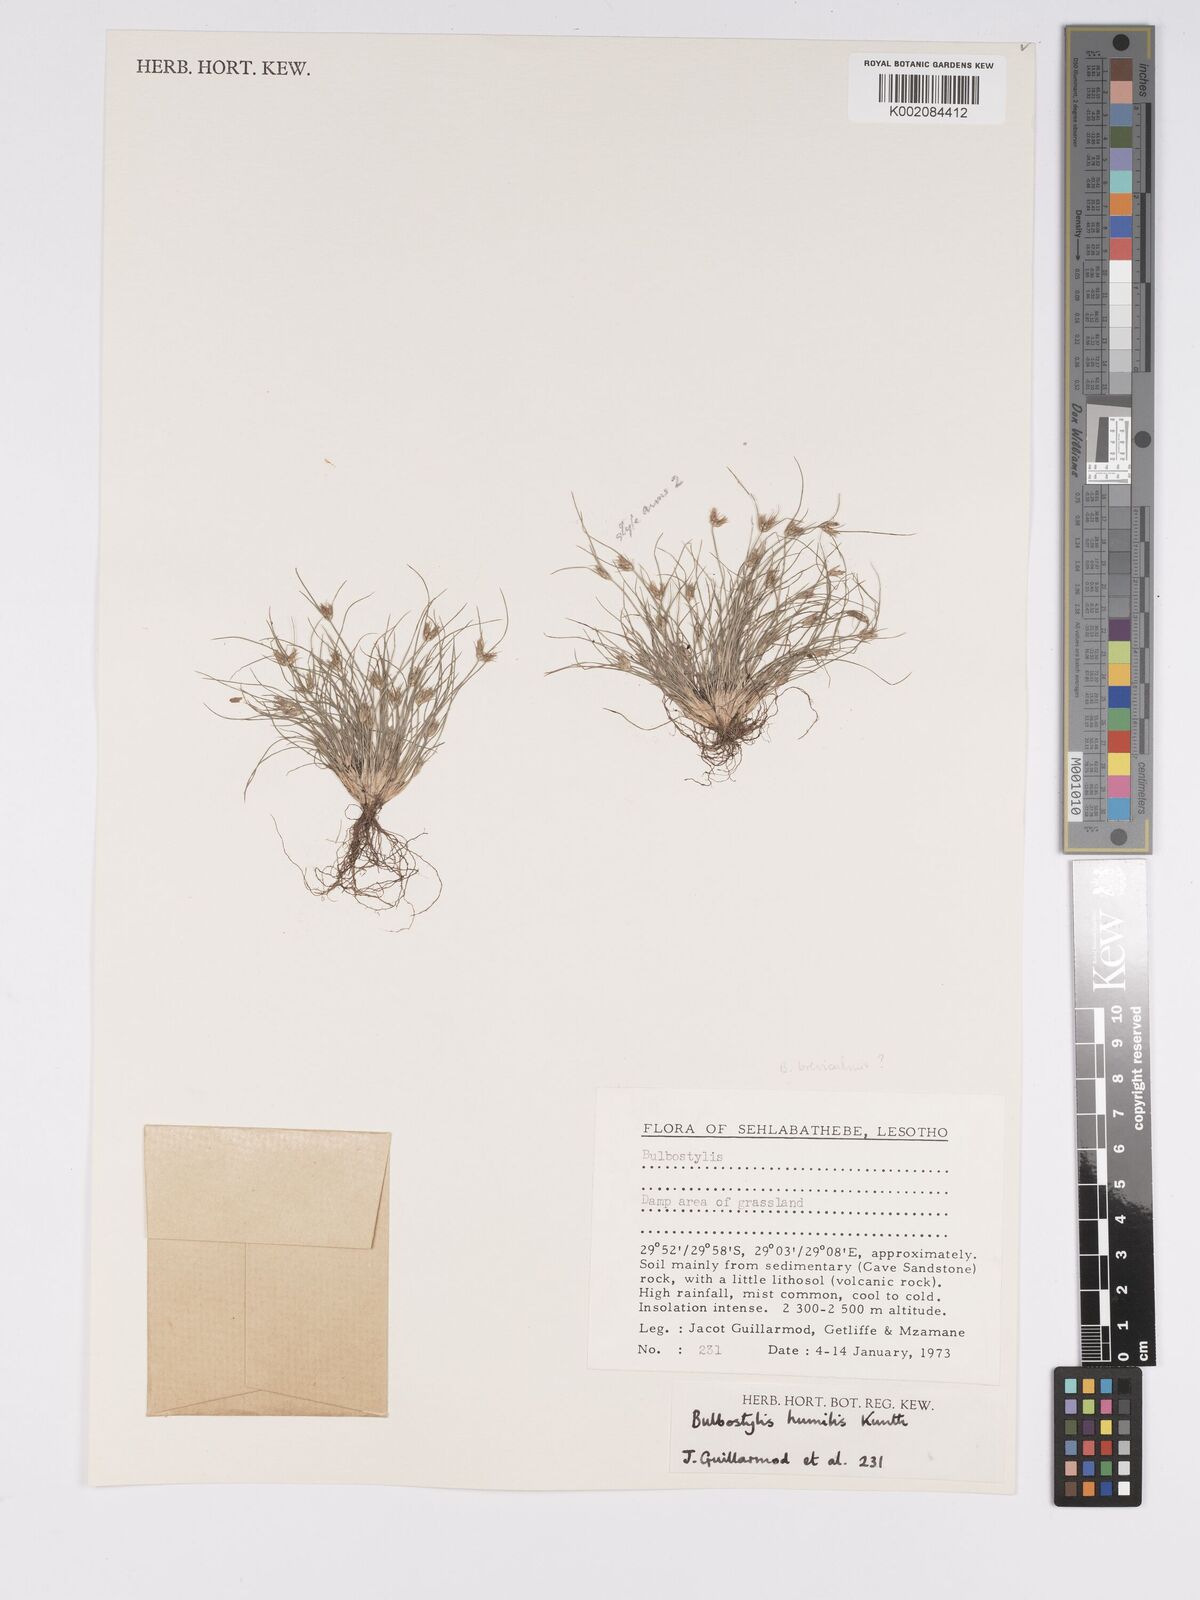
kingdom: Plantae
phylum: Tracheophyta
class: Liliopsida
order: Poales
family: Cyperaceae
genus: Bulbostylis
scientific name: Bulbostylis humilis
